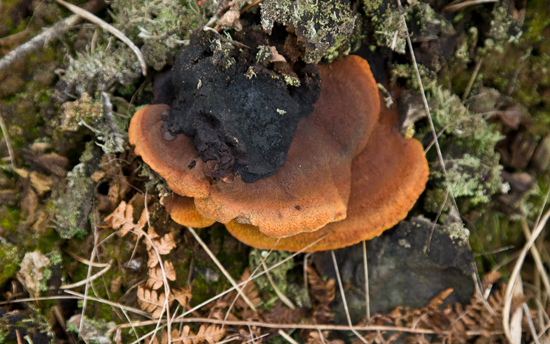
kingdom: Fungi
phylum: Basidiomycota
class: Agaricomycetes
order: Gloeophyllales
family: Gloeophyllaceae
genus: Gloeophyllum
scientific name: Gloeophyllum odoratum
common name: duftende korkhat
